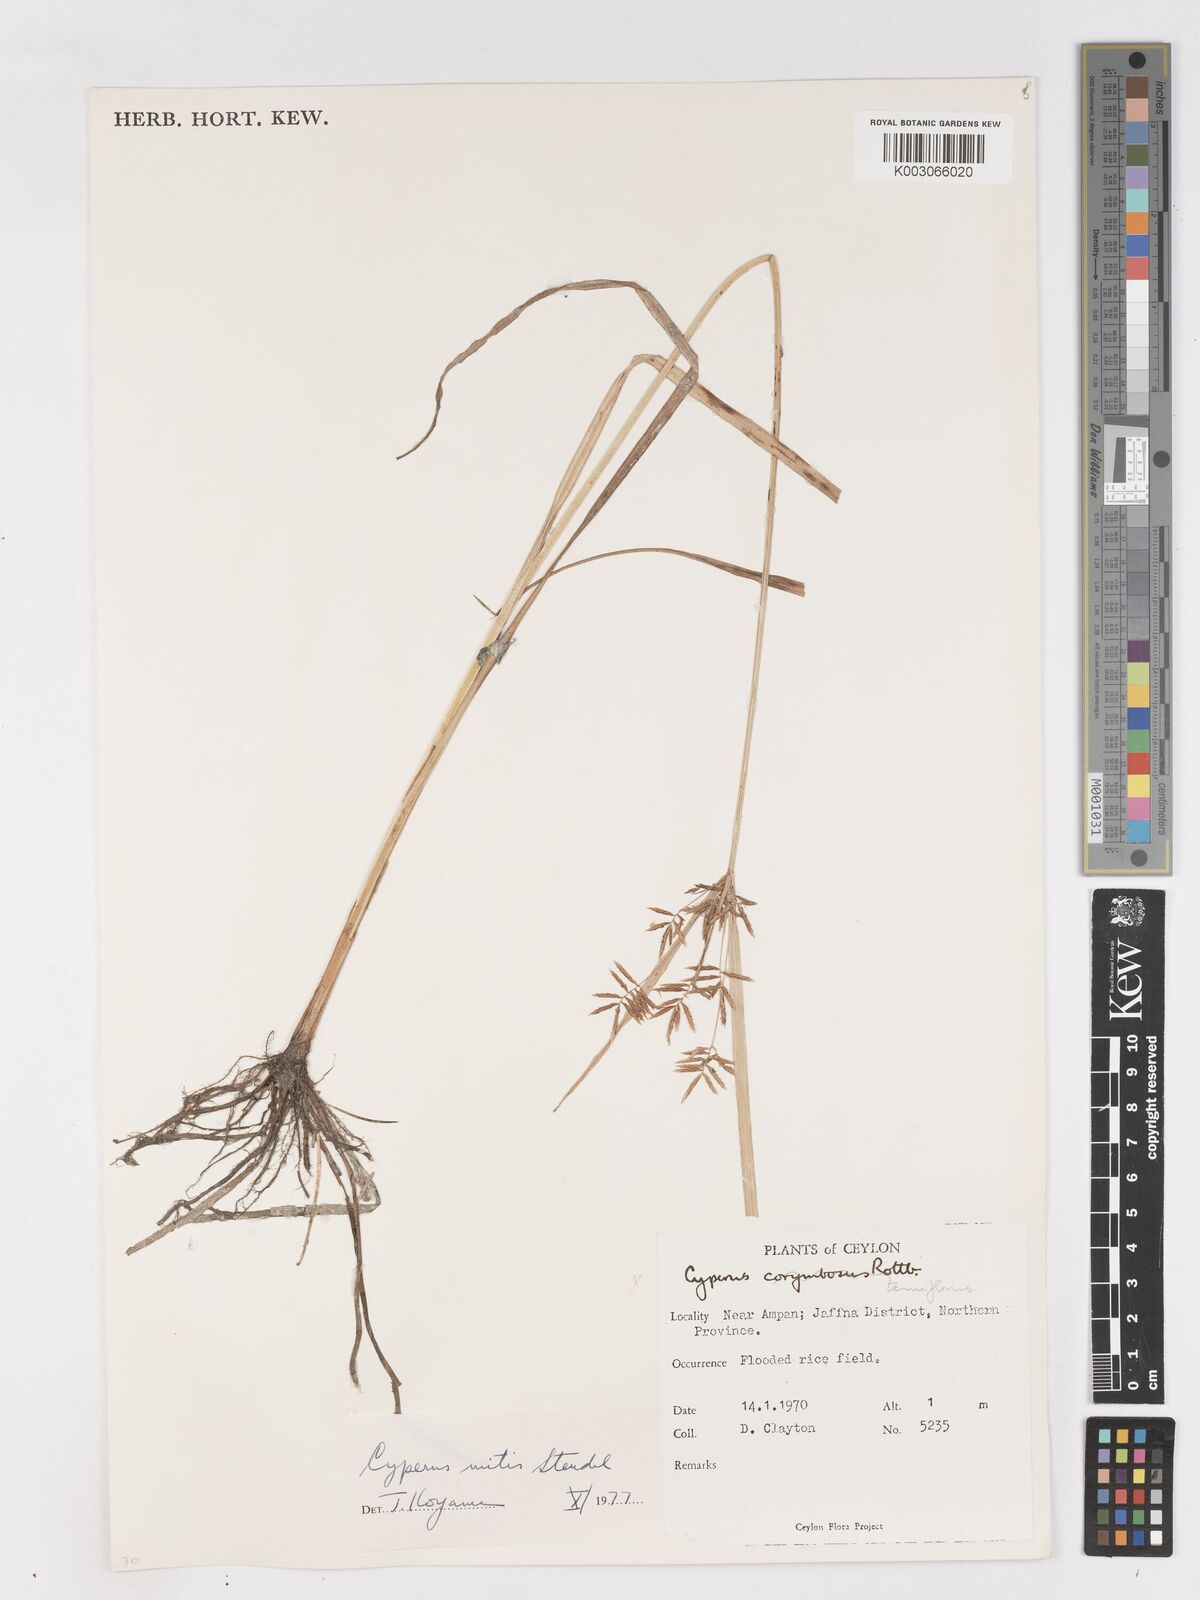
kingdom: Plantae
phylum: Tracheophyta
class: Liliopsida
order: Poales
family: Cyperaceae
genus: Cyperus
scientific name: Cyperus mitis
